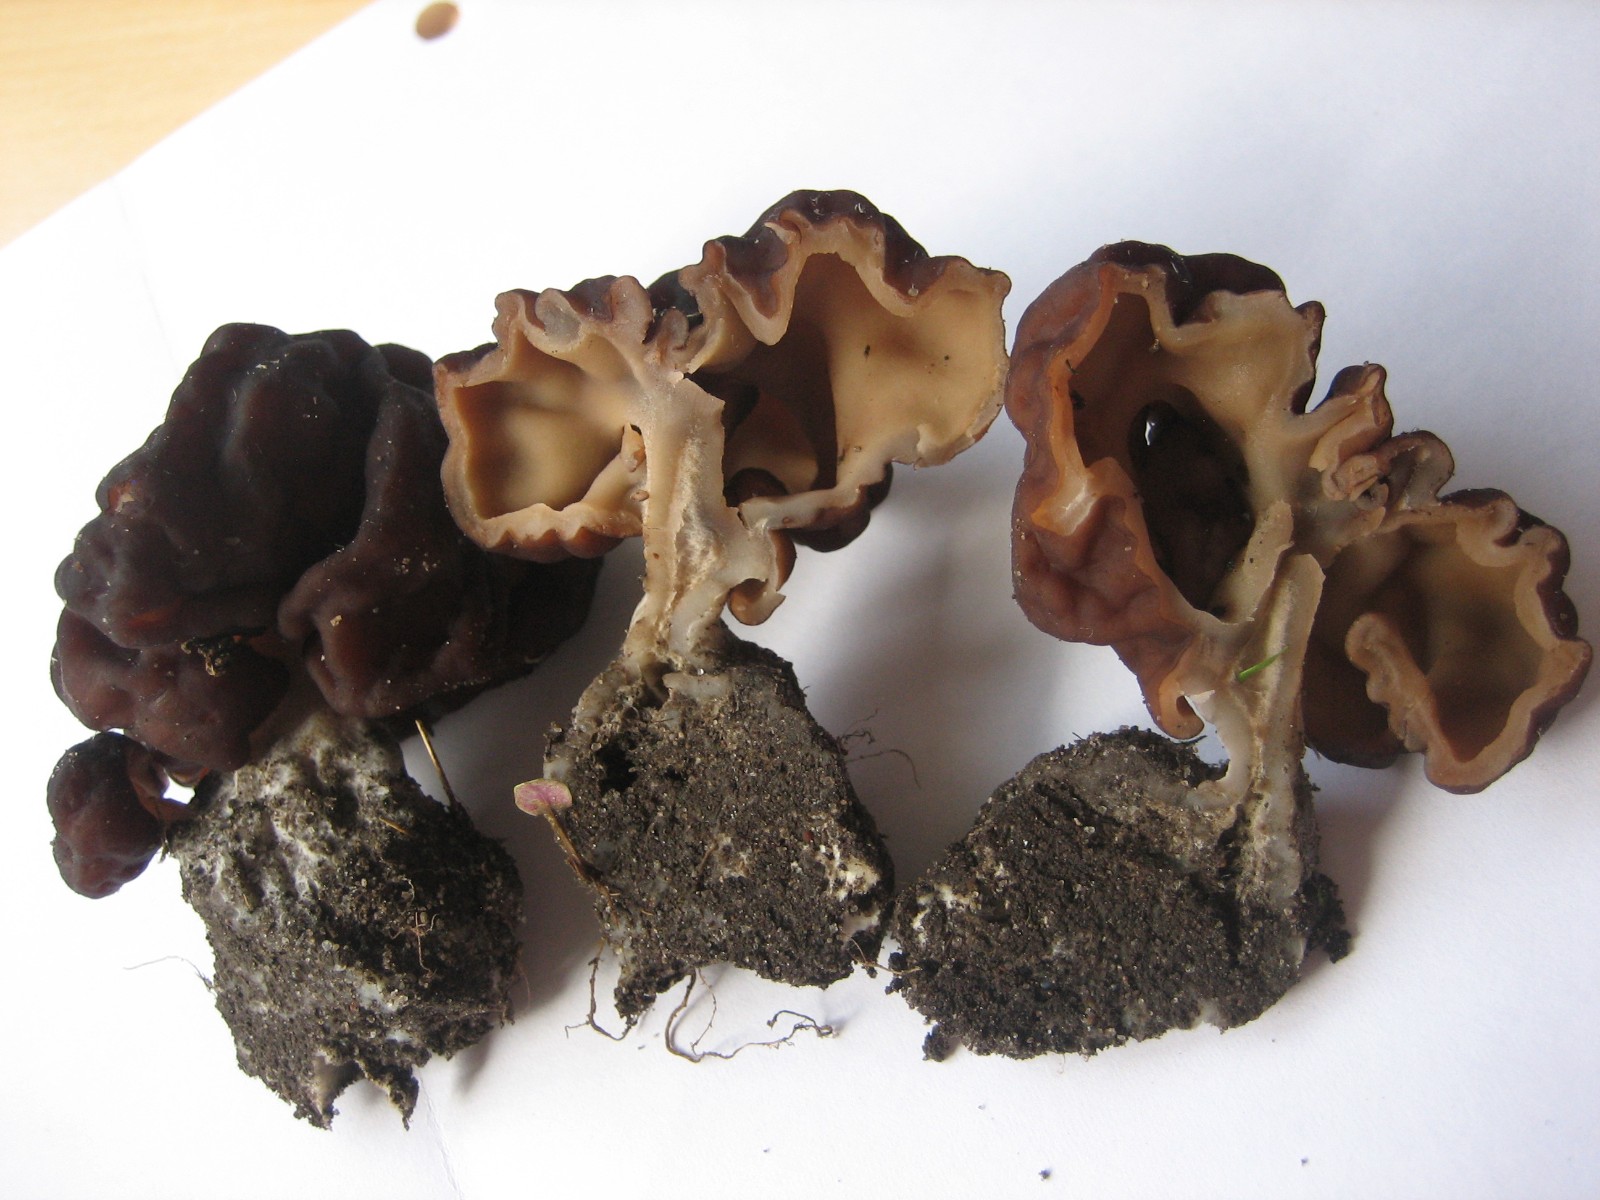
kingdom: Fungi
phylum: Ascomycota
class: Pezizomycetes
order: Pezizales
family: Discinaceae
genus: Gyromitra
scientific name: Gyromitra esculenta
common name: ægte stenmorkel
